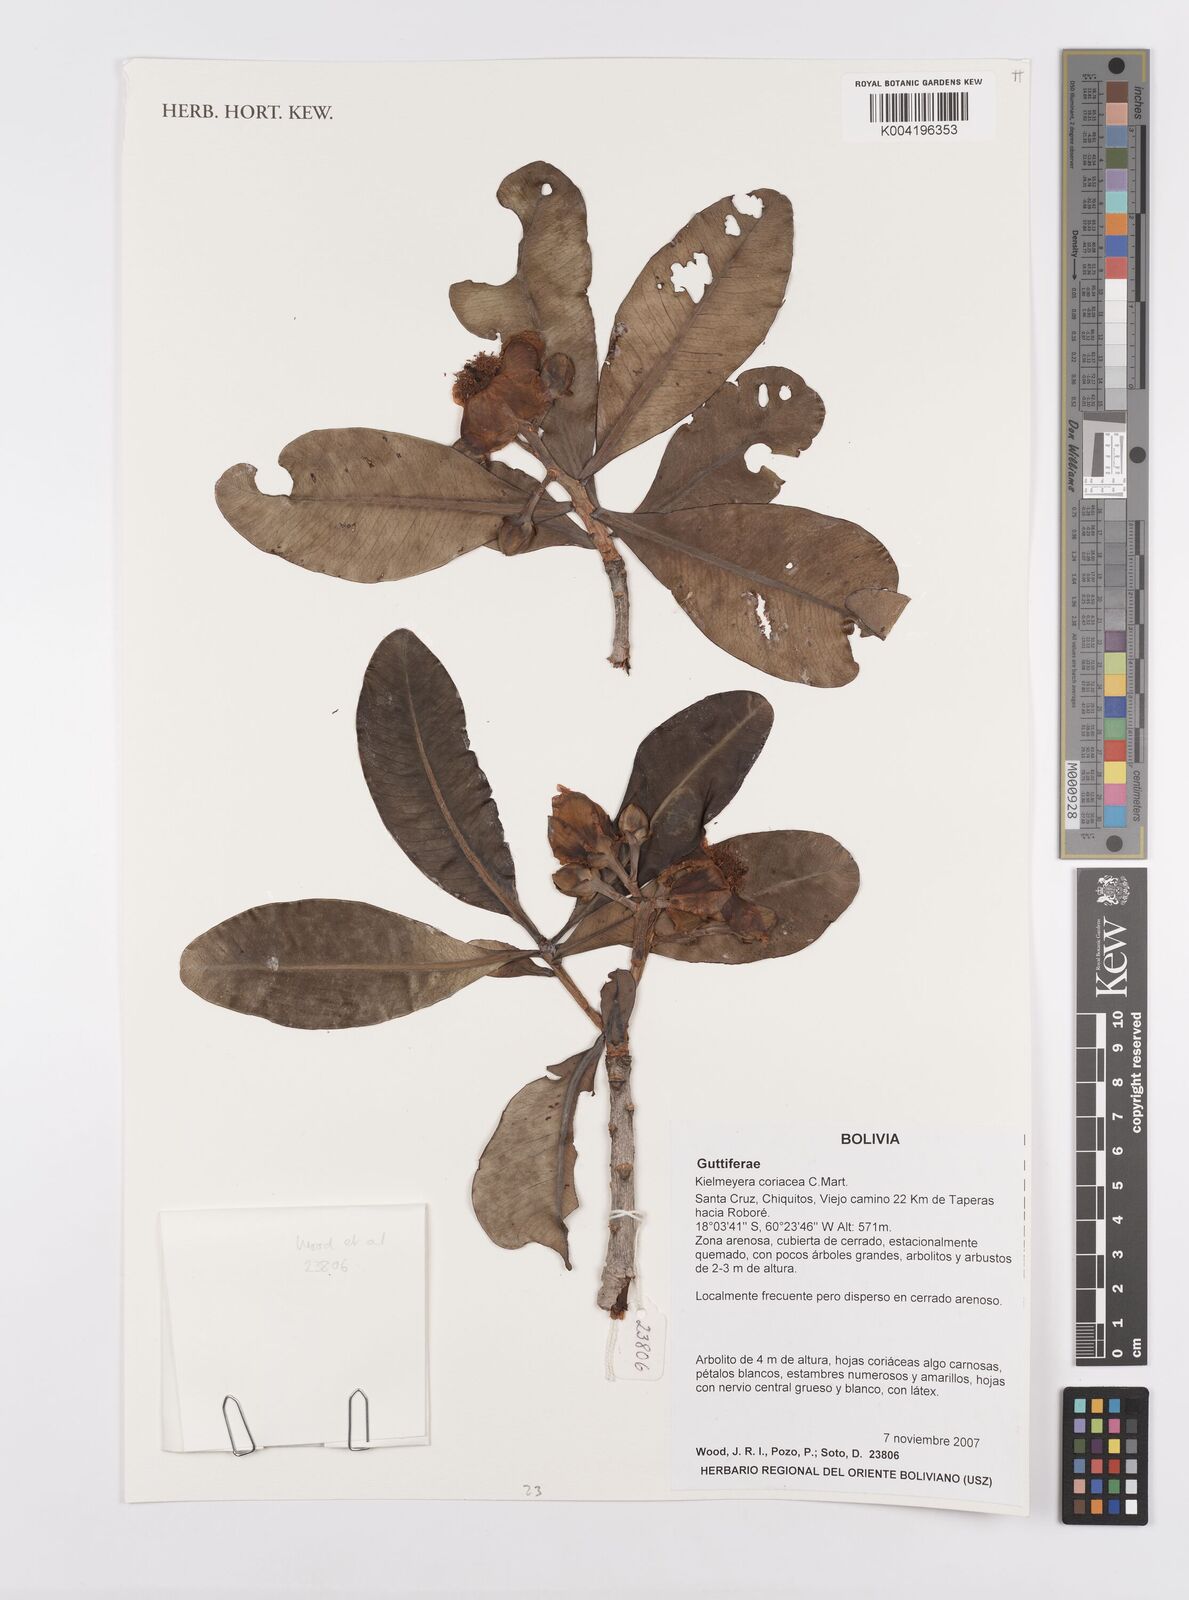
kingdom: Plantae
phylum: Tracheophyta
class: Magnoliopsida
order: Malpighiales
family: Calophyllaceae
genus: Kielmeyera
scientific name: Kielmeyera coriacea
